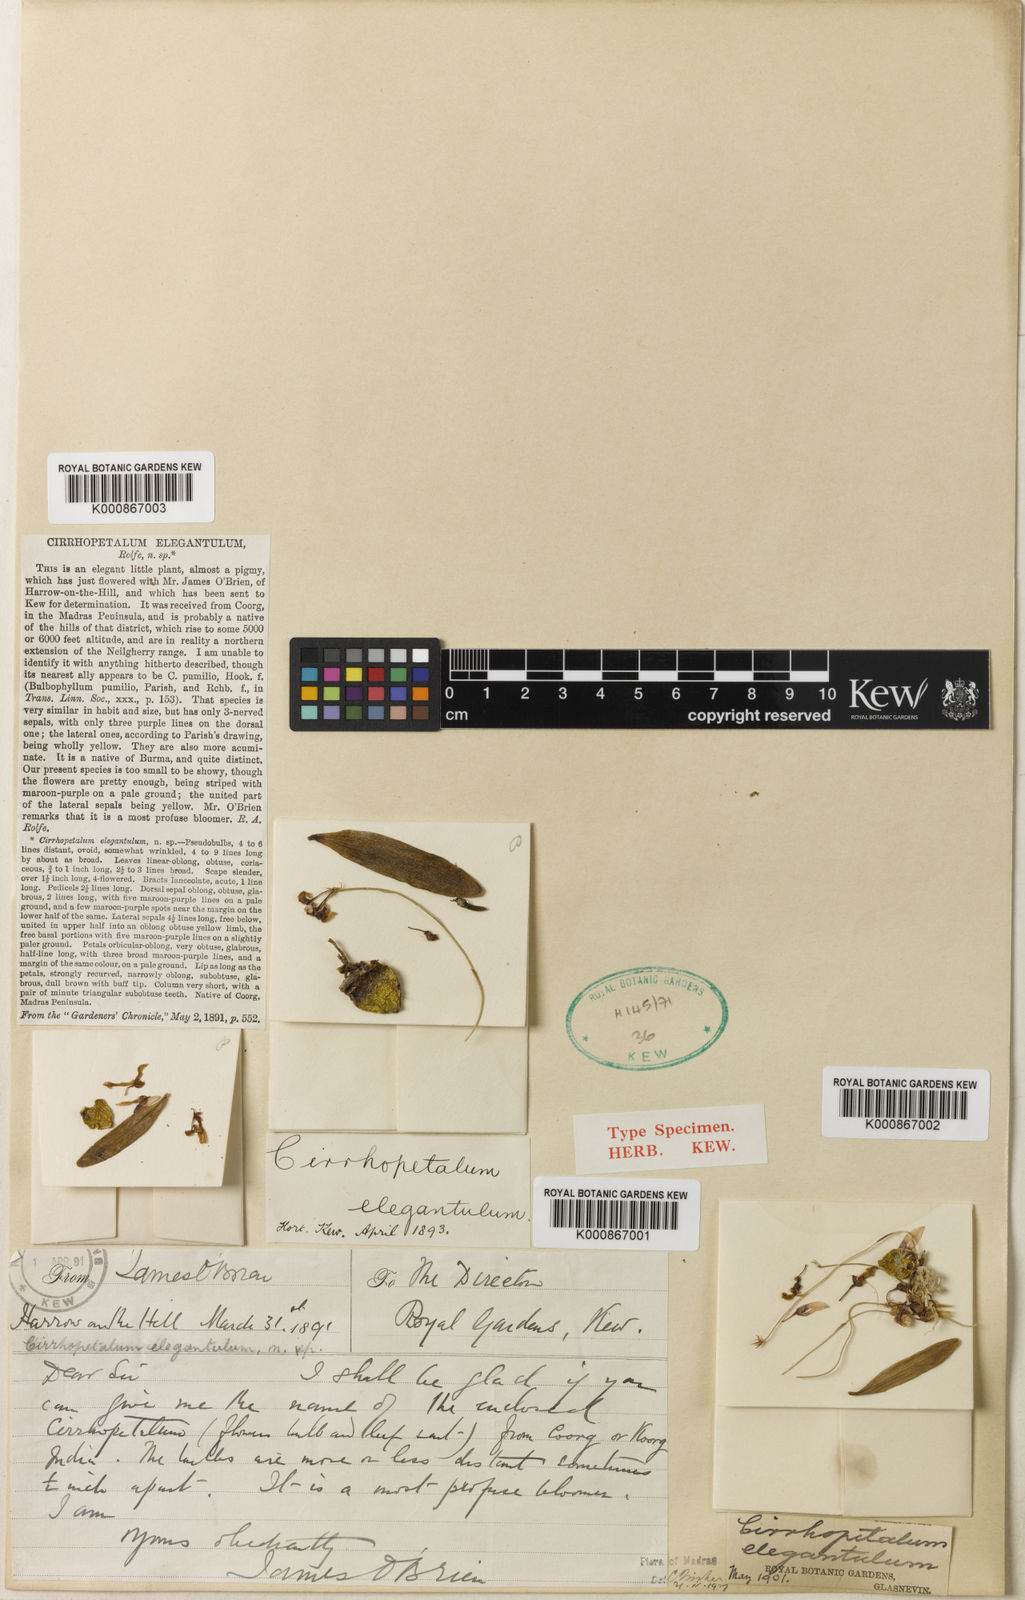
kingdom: Plantae
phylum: Tracheophyta
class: Liliopsida
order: Asparagales
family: Orchidaceae
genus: Bulbophyllum
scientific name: Bulbophyllum elegantulum
